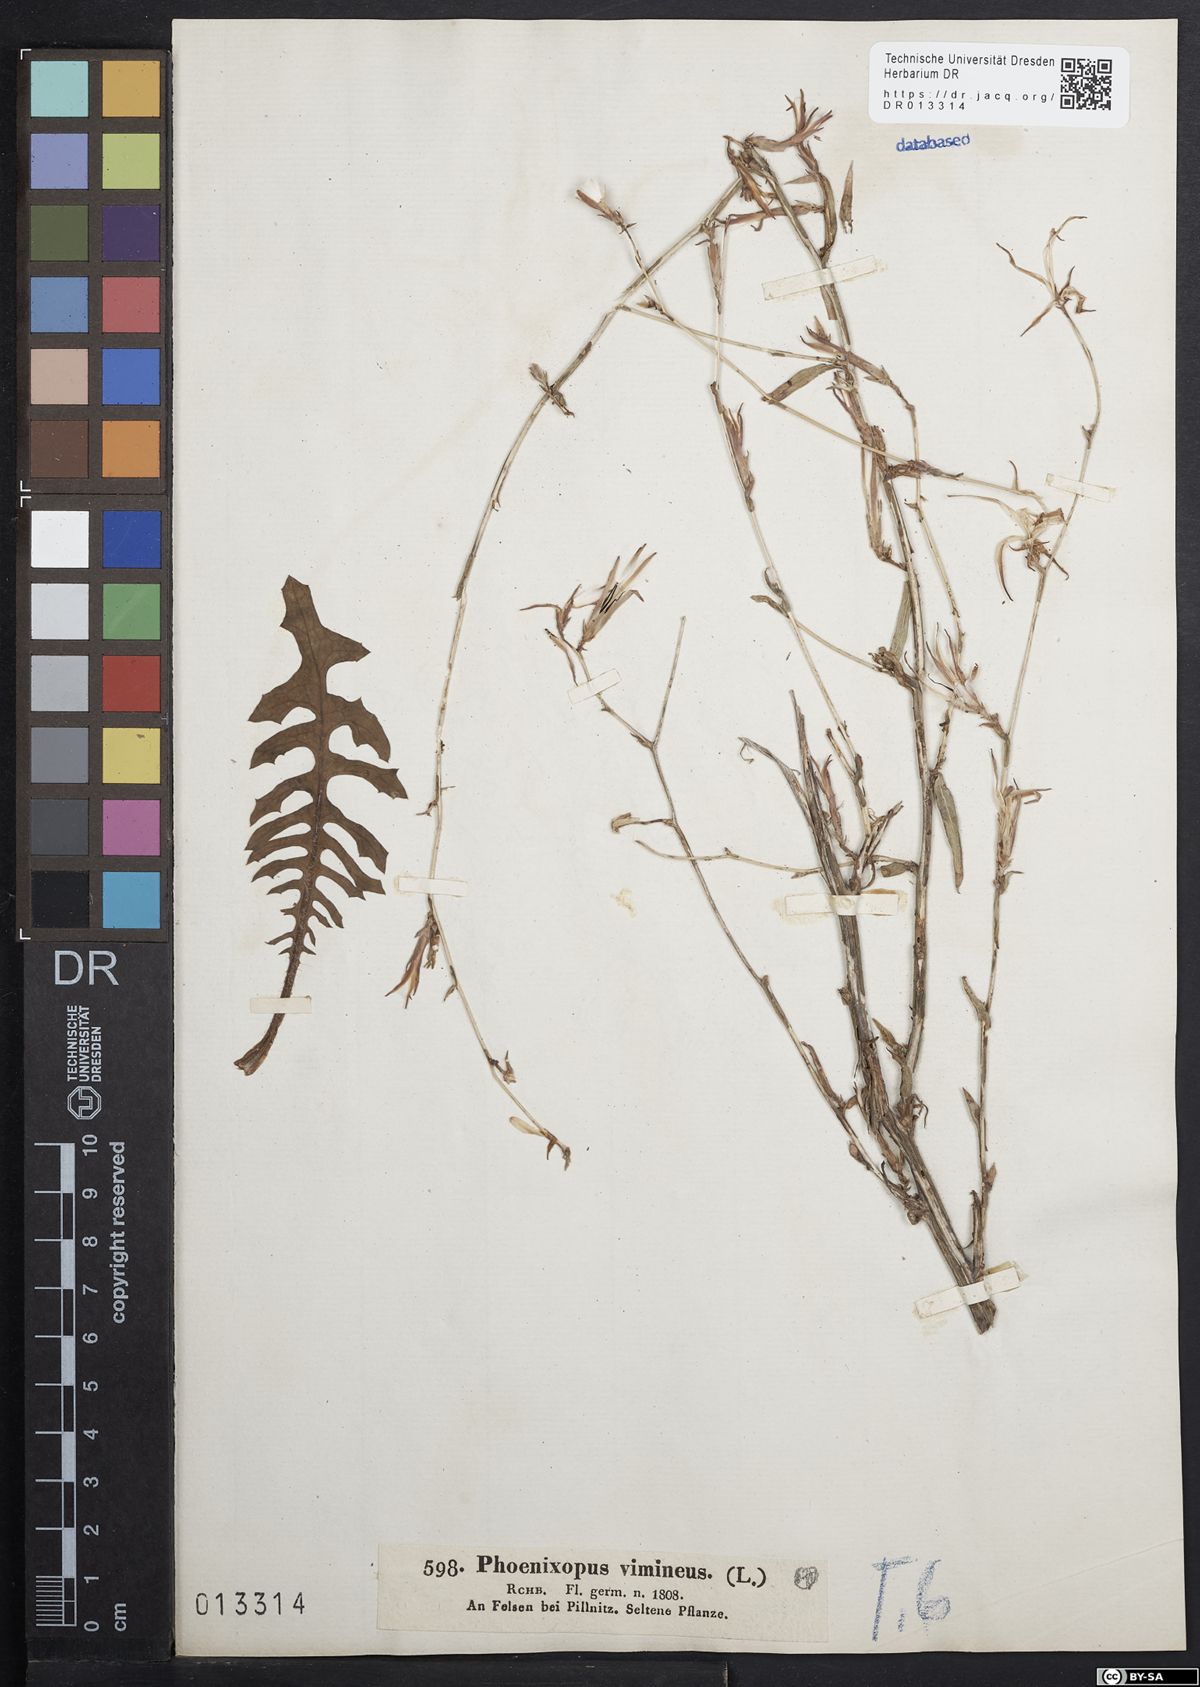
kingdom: Plantae
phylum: Tracheophyta
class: Magnoliopsida
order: Asterales
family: Asteraceae
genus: Lactuca
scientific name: Lactuca viminea
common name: Pliant lettuce
